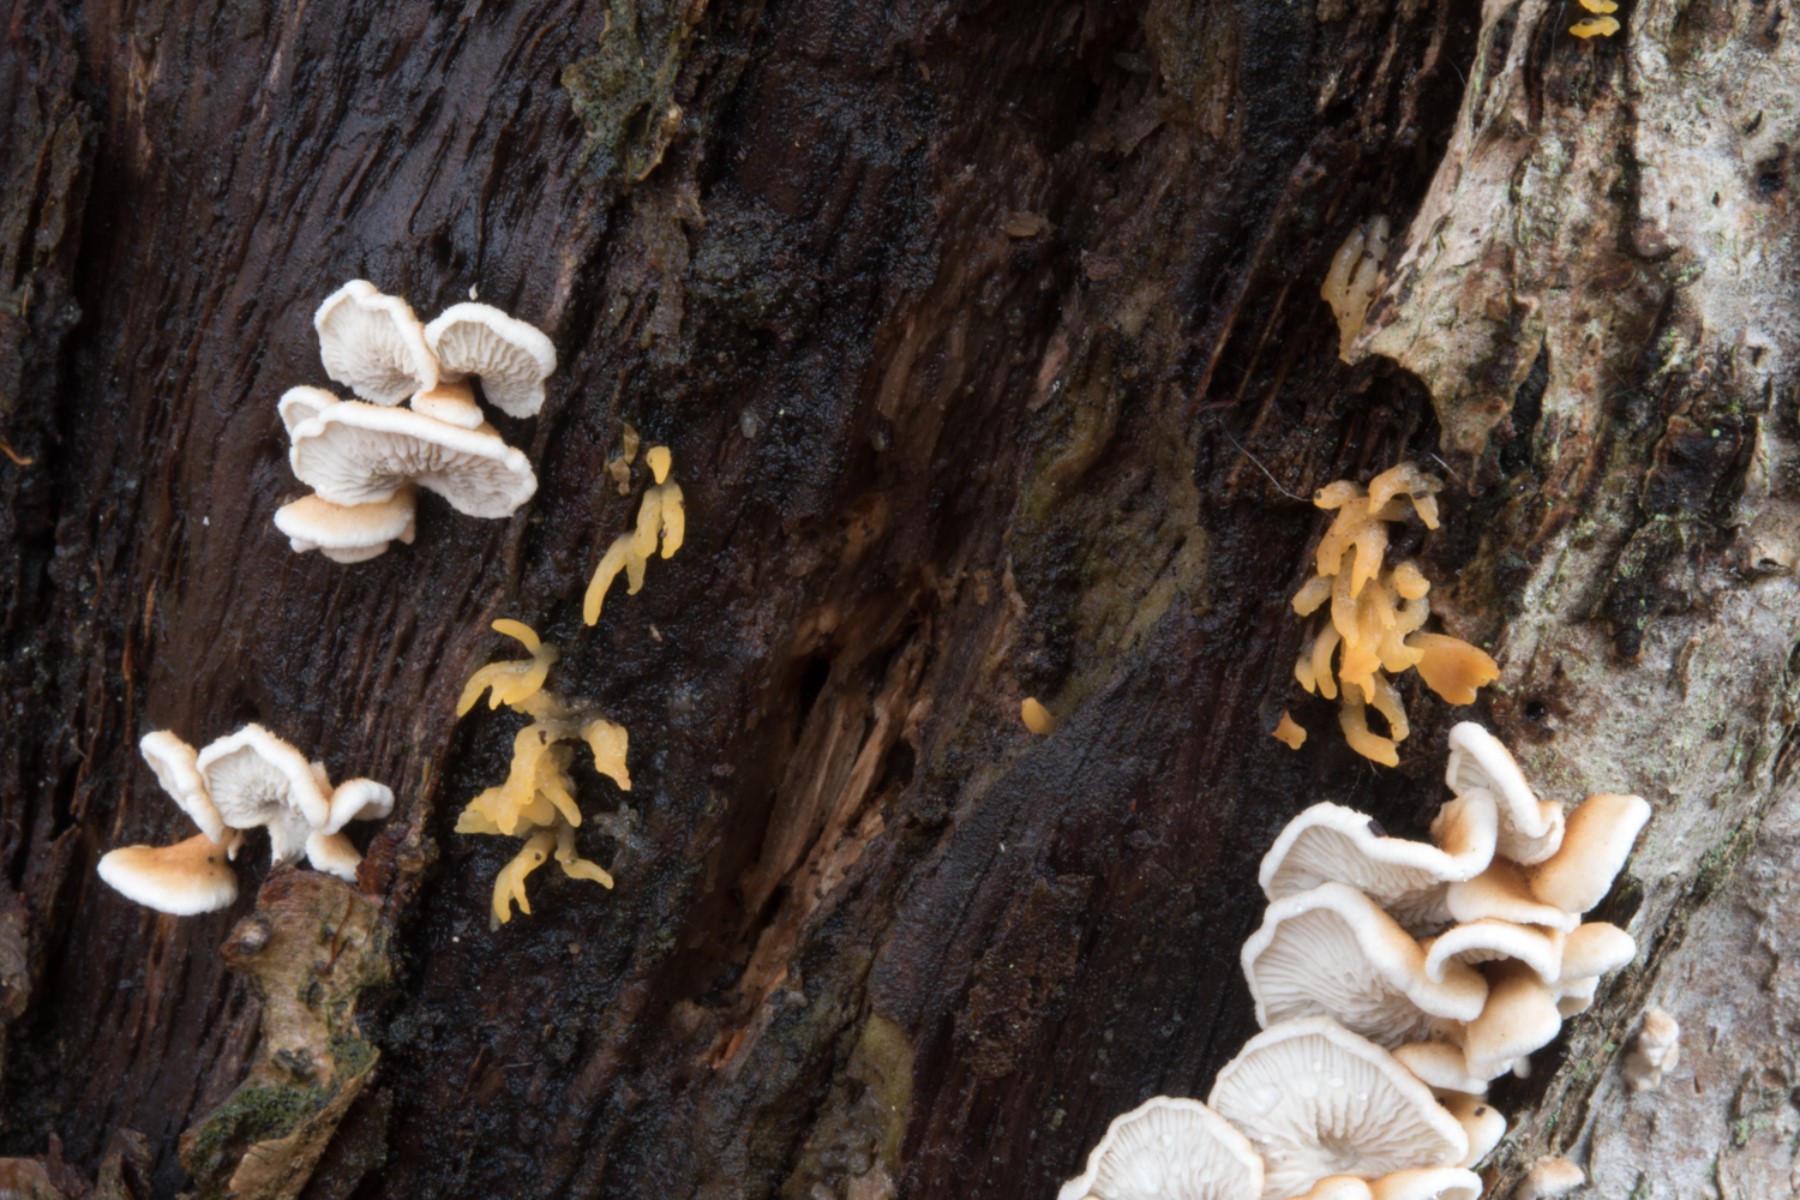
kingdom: Fungi
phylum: Basidiomycota
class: Dacrymycetes
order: Dacrymycetales
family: Dacrymycetaceae
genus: Calocera
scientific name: Calocera cornea
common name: liden guldgaffel
